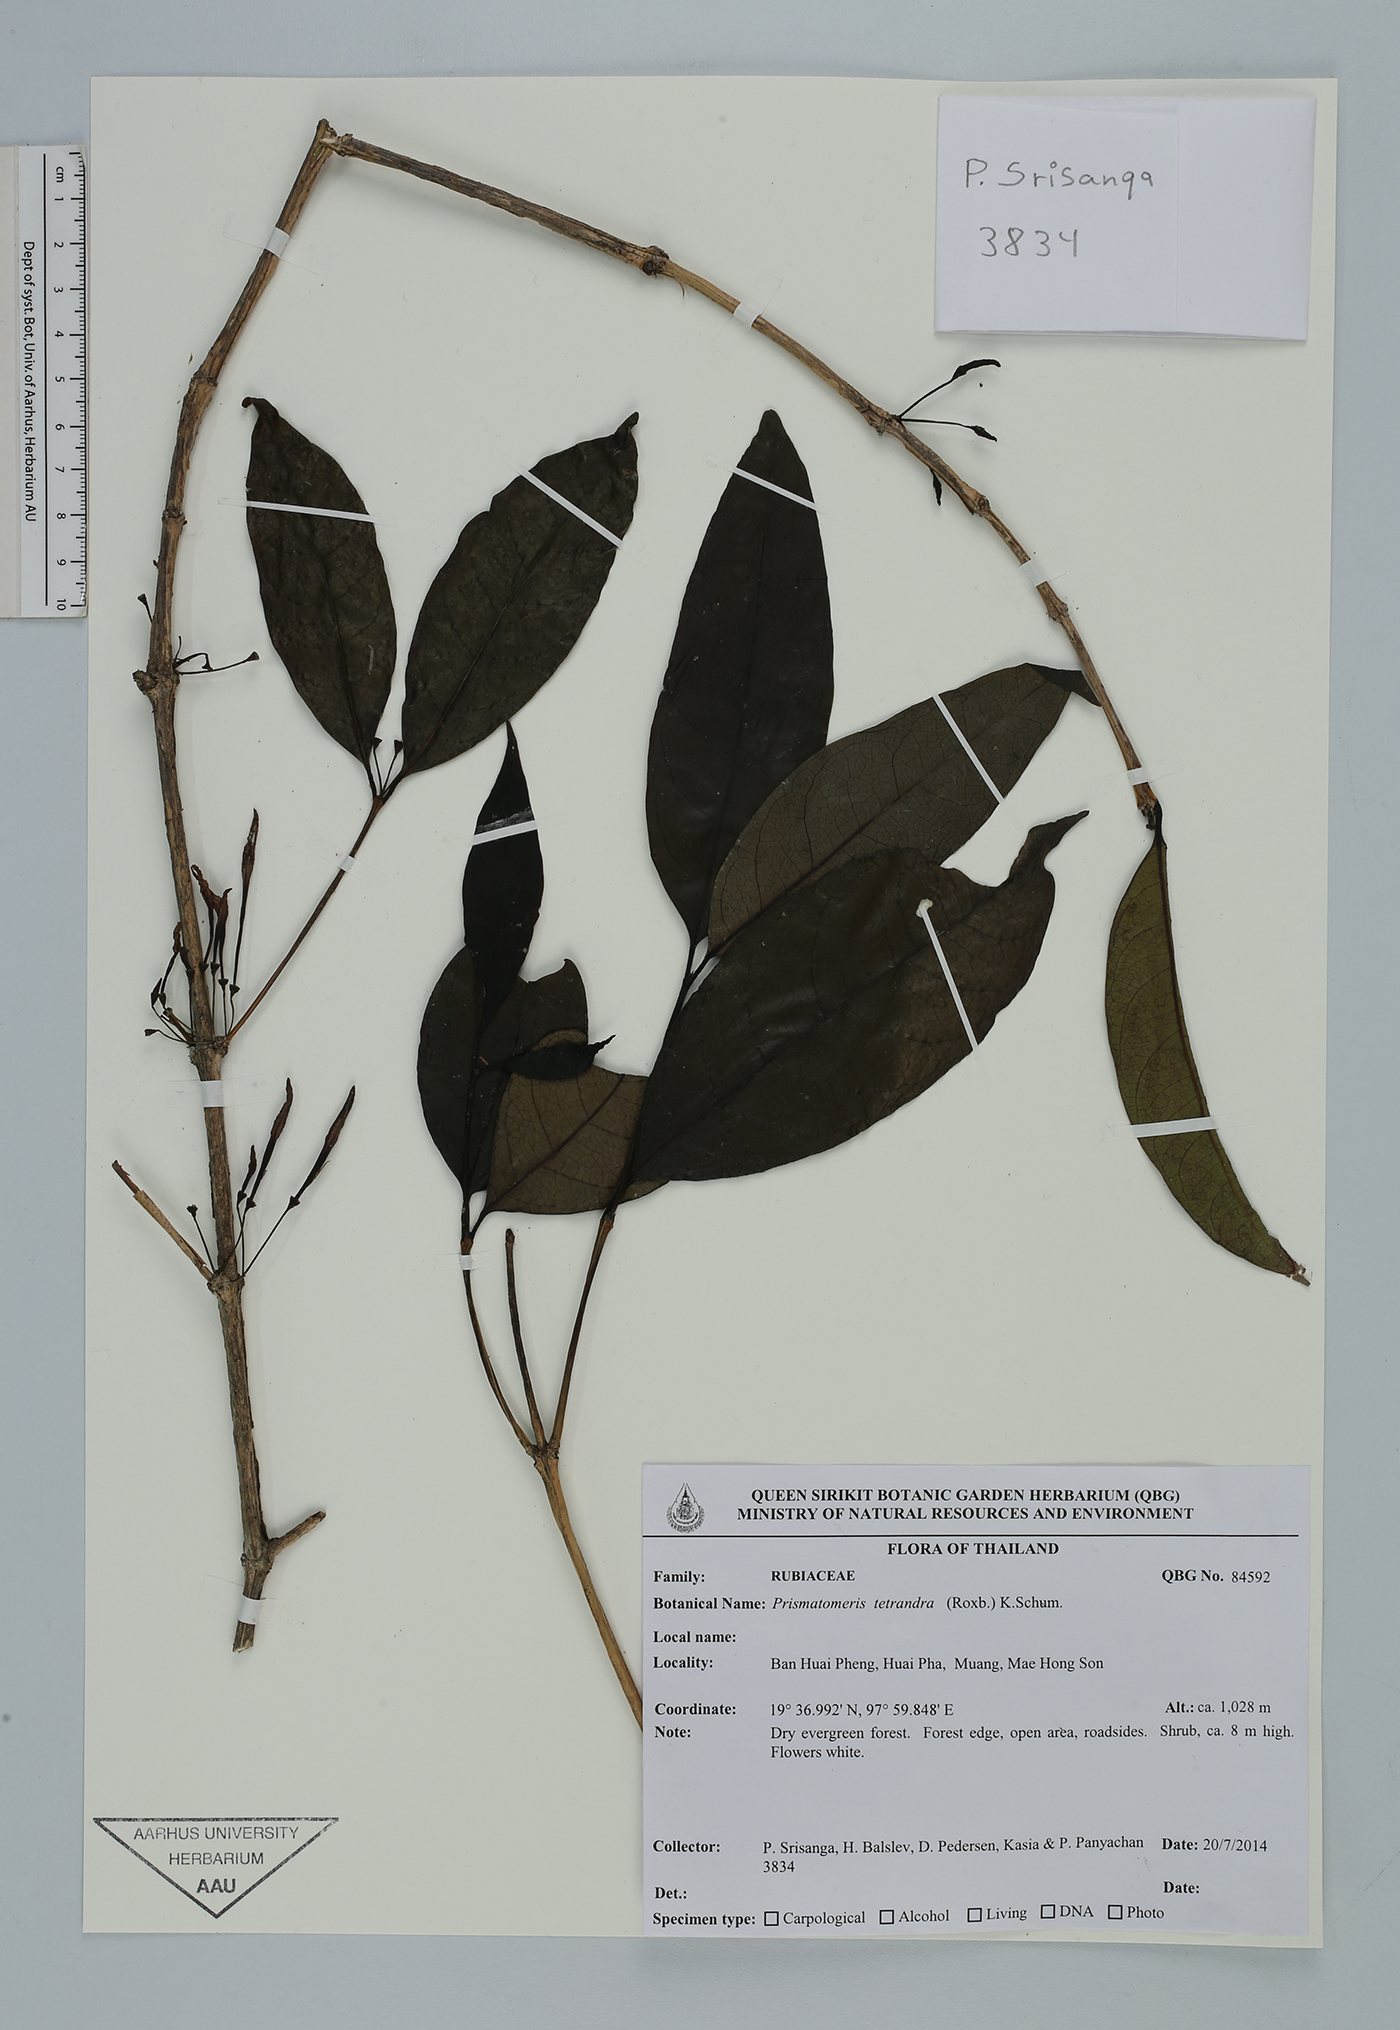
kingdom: Plantae
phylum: Tracheophyta
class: Magnoliopsida
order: Gentianales
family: Rubiaceae
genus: Prismatomeris
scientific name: Prismatomeris tetrandra
